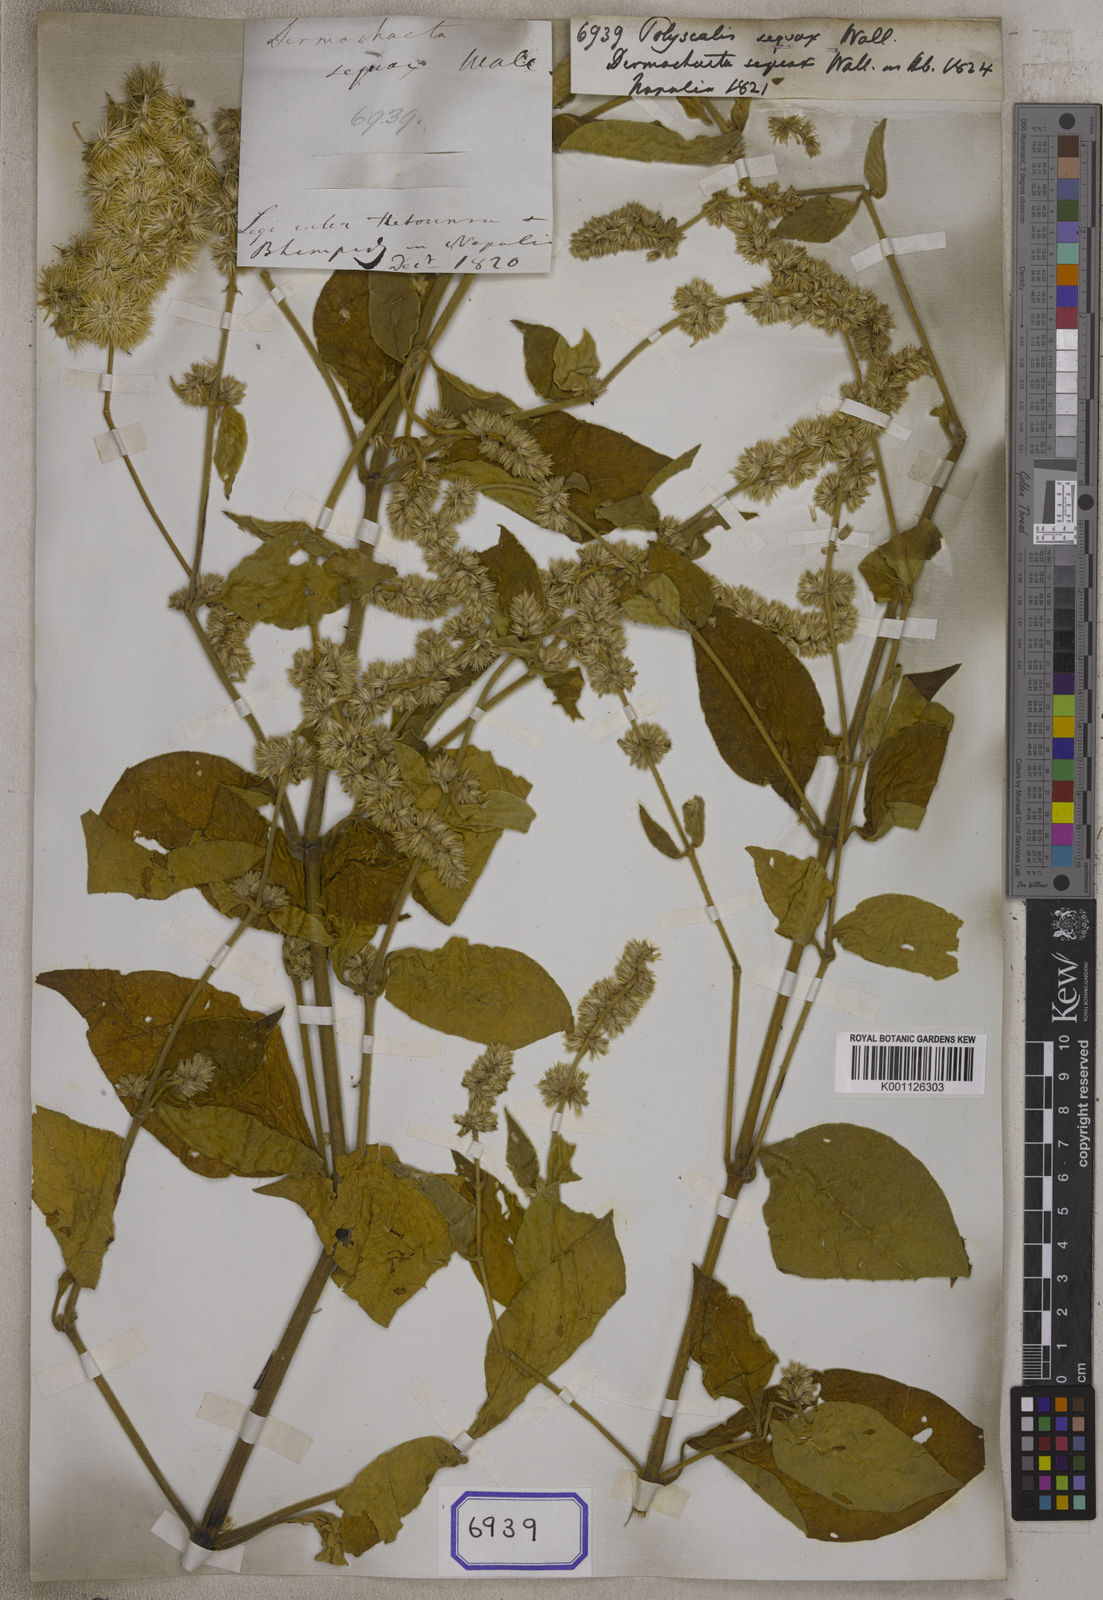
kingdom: Plantae
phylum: Tracheophyta
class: Magnoliopsida
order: Caryophyllales
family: Amaranthaceae
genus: Cyathula
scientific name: Cyathula tomentosa
